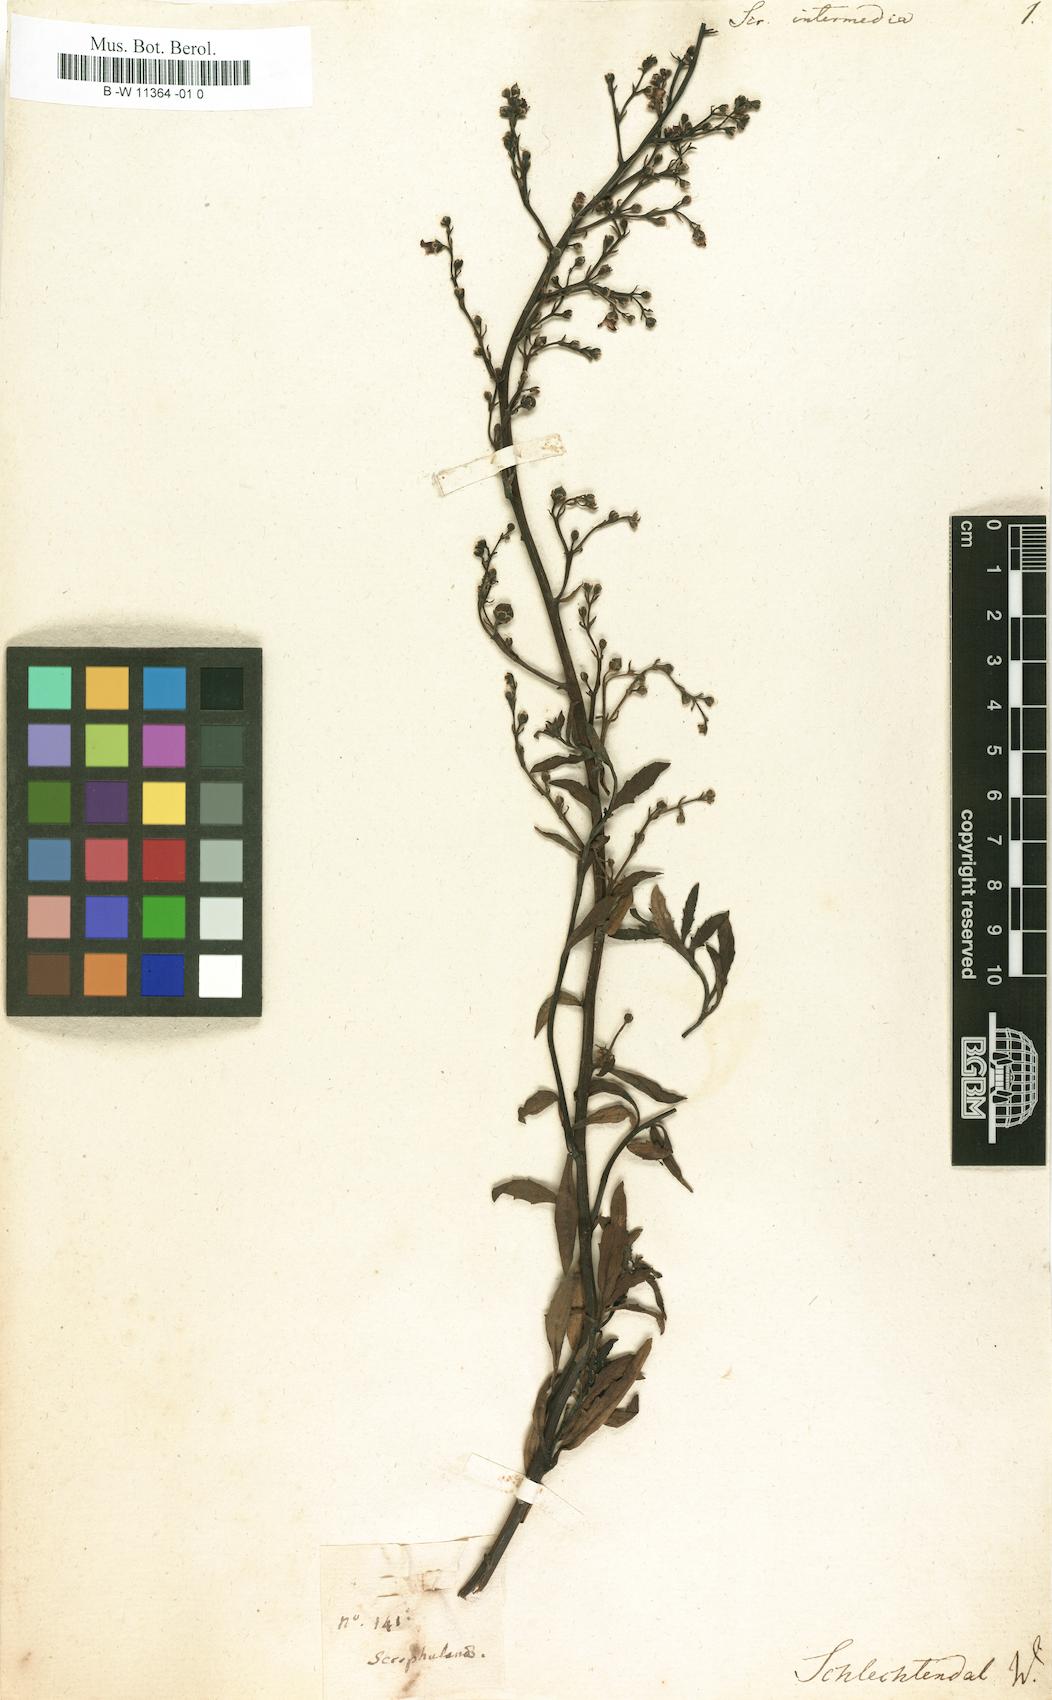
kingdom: Plantae
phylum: Tracheophyta
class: Magnoliopsida
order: Lamiales
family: Scrophulariaceae
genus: Scrophularia
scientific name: Scrophularia
